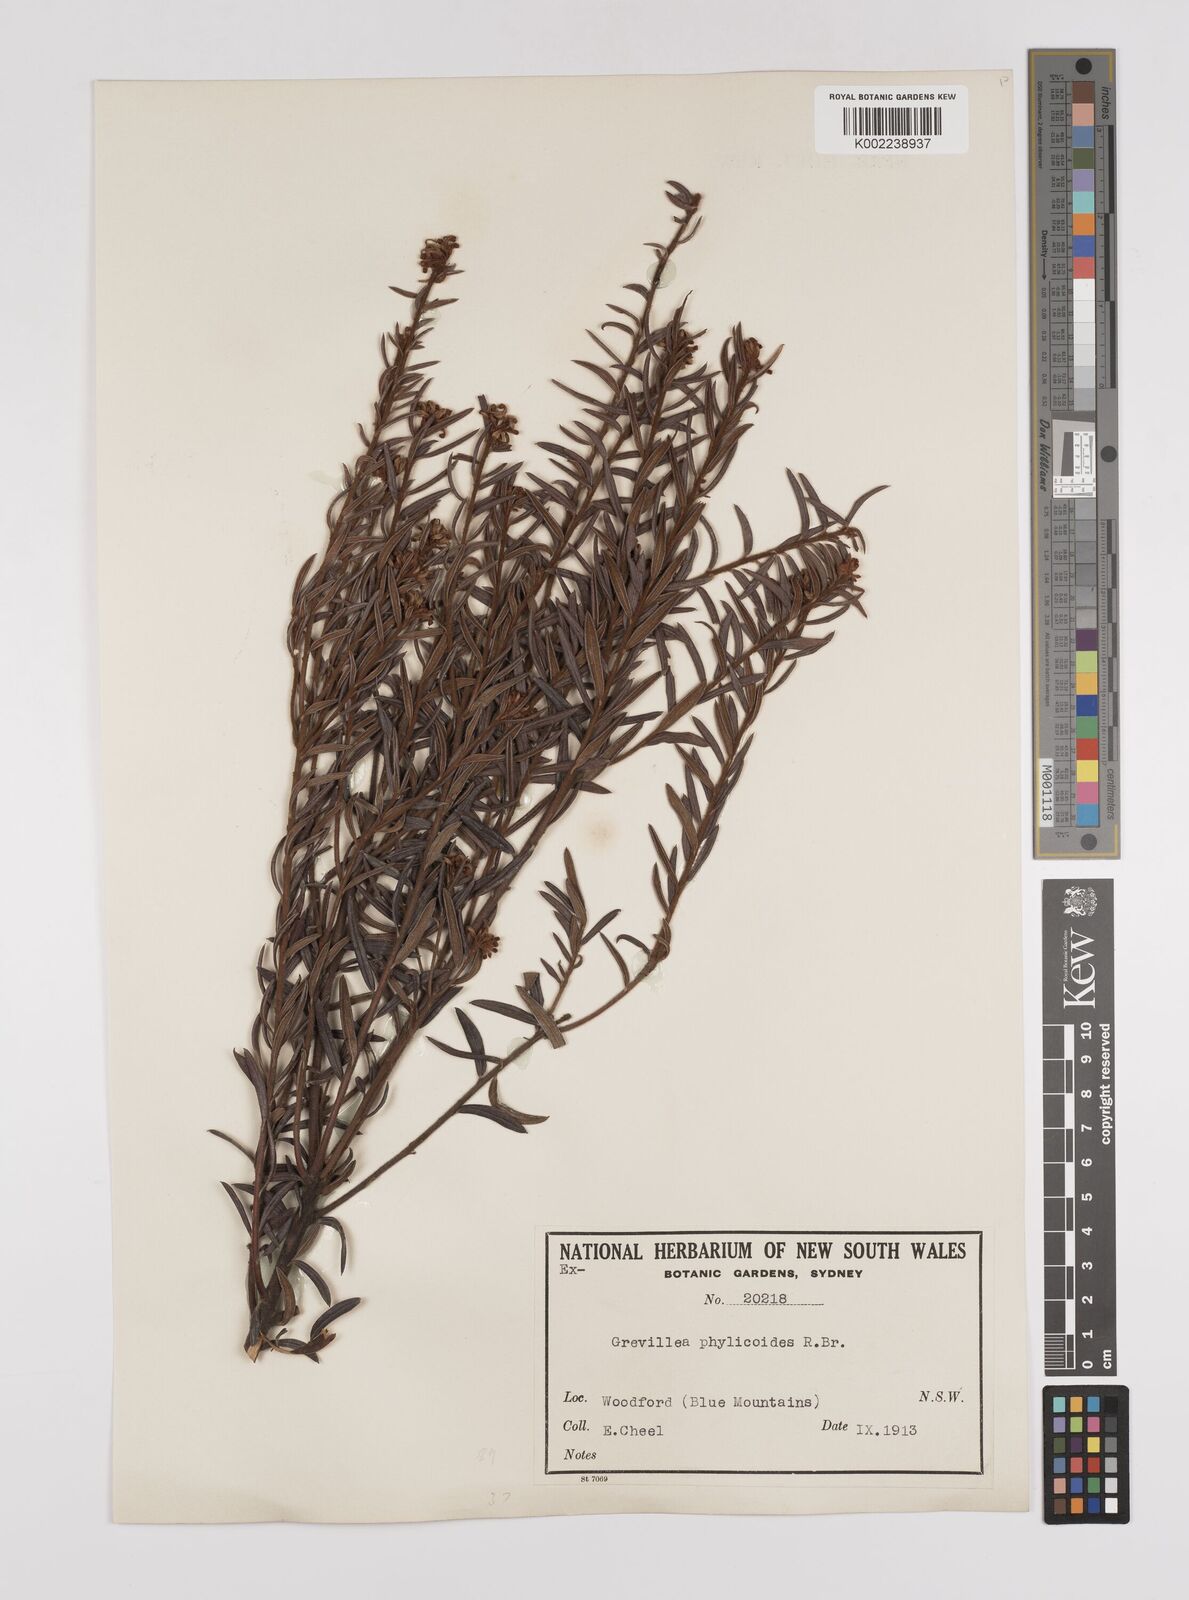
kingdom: Plantae
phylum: Tracheophyta
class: Magnoliopsida
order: Proteales
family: Proteaceae
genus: Grevillea
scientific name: Grevillea phylicoides
